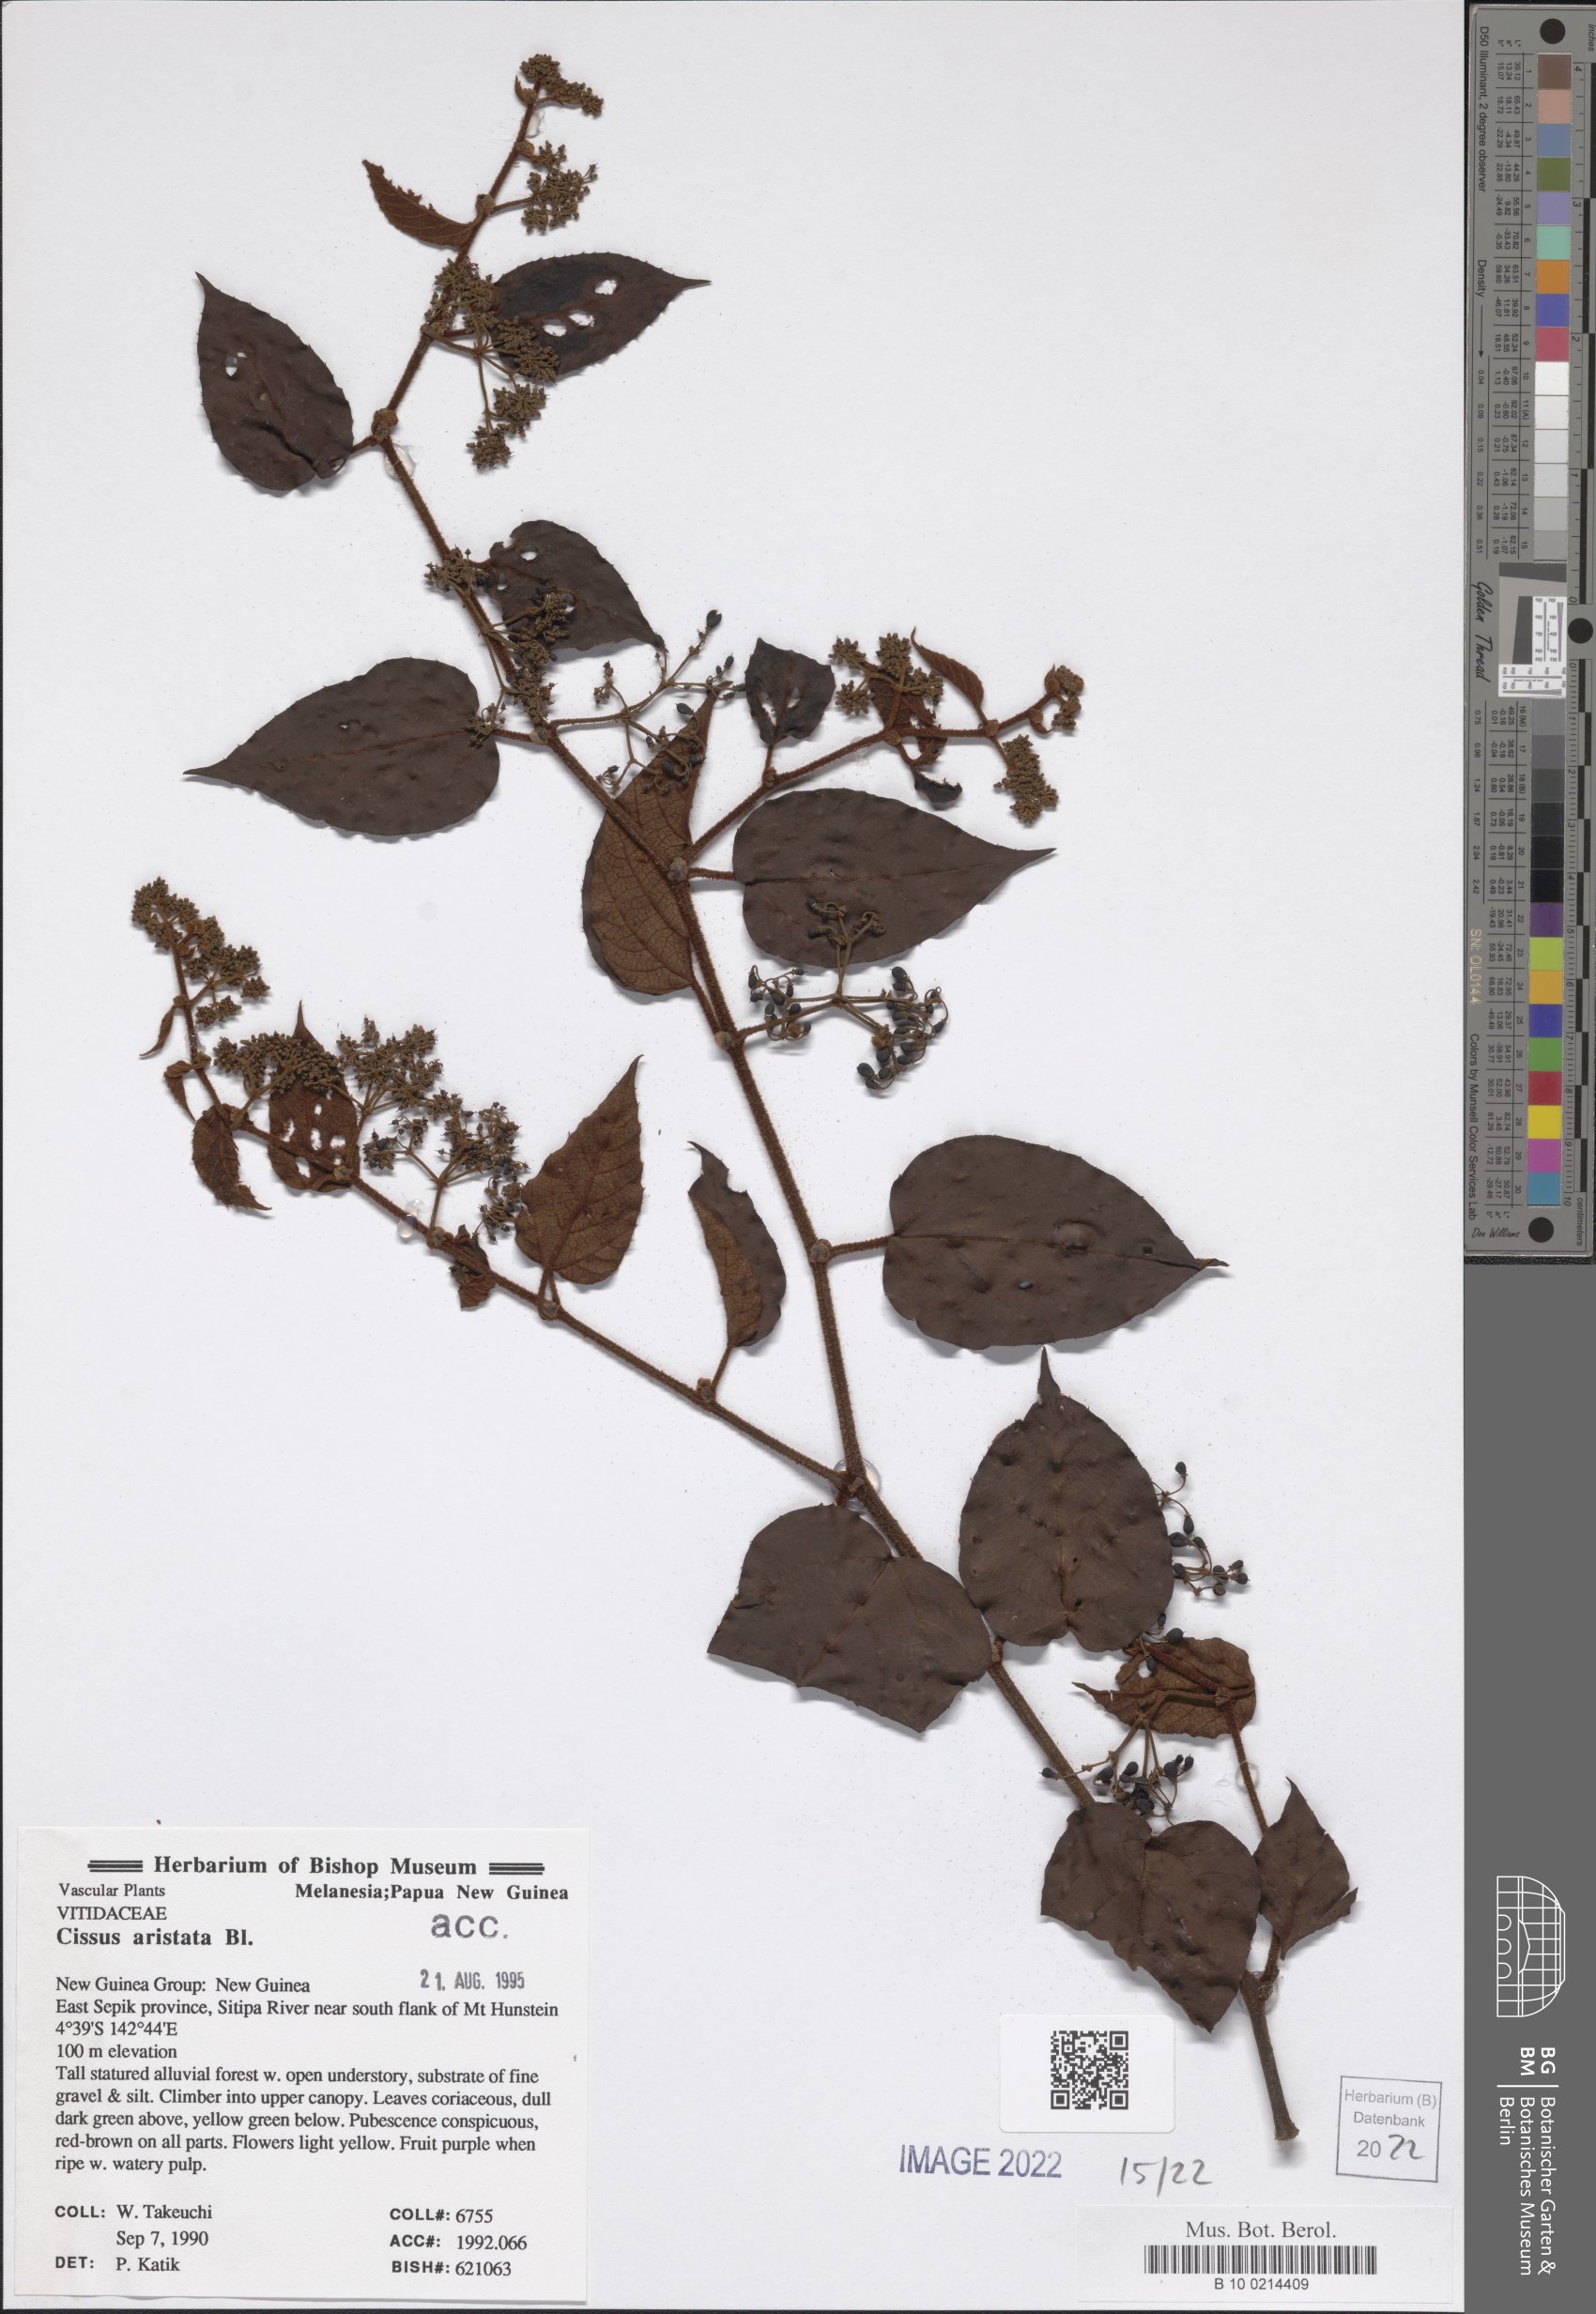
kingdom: Plantae
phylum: Tracheophyta
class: Magnoliopsida
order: Vitales
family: Vitaceae
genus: Cissus
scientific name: Cissus aristata
